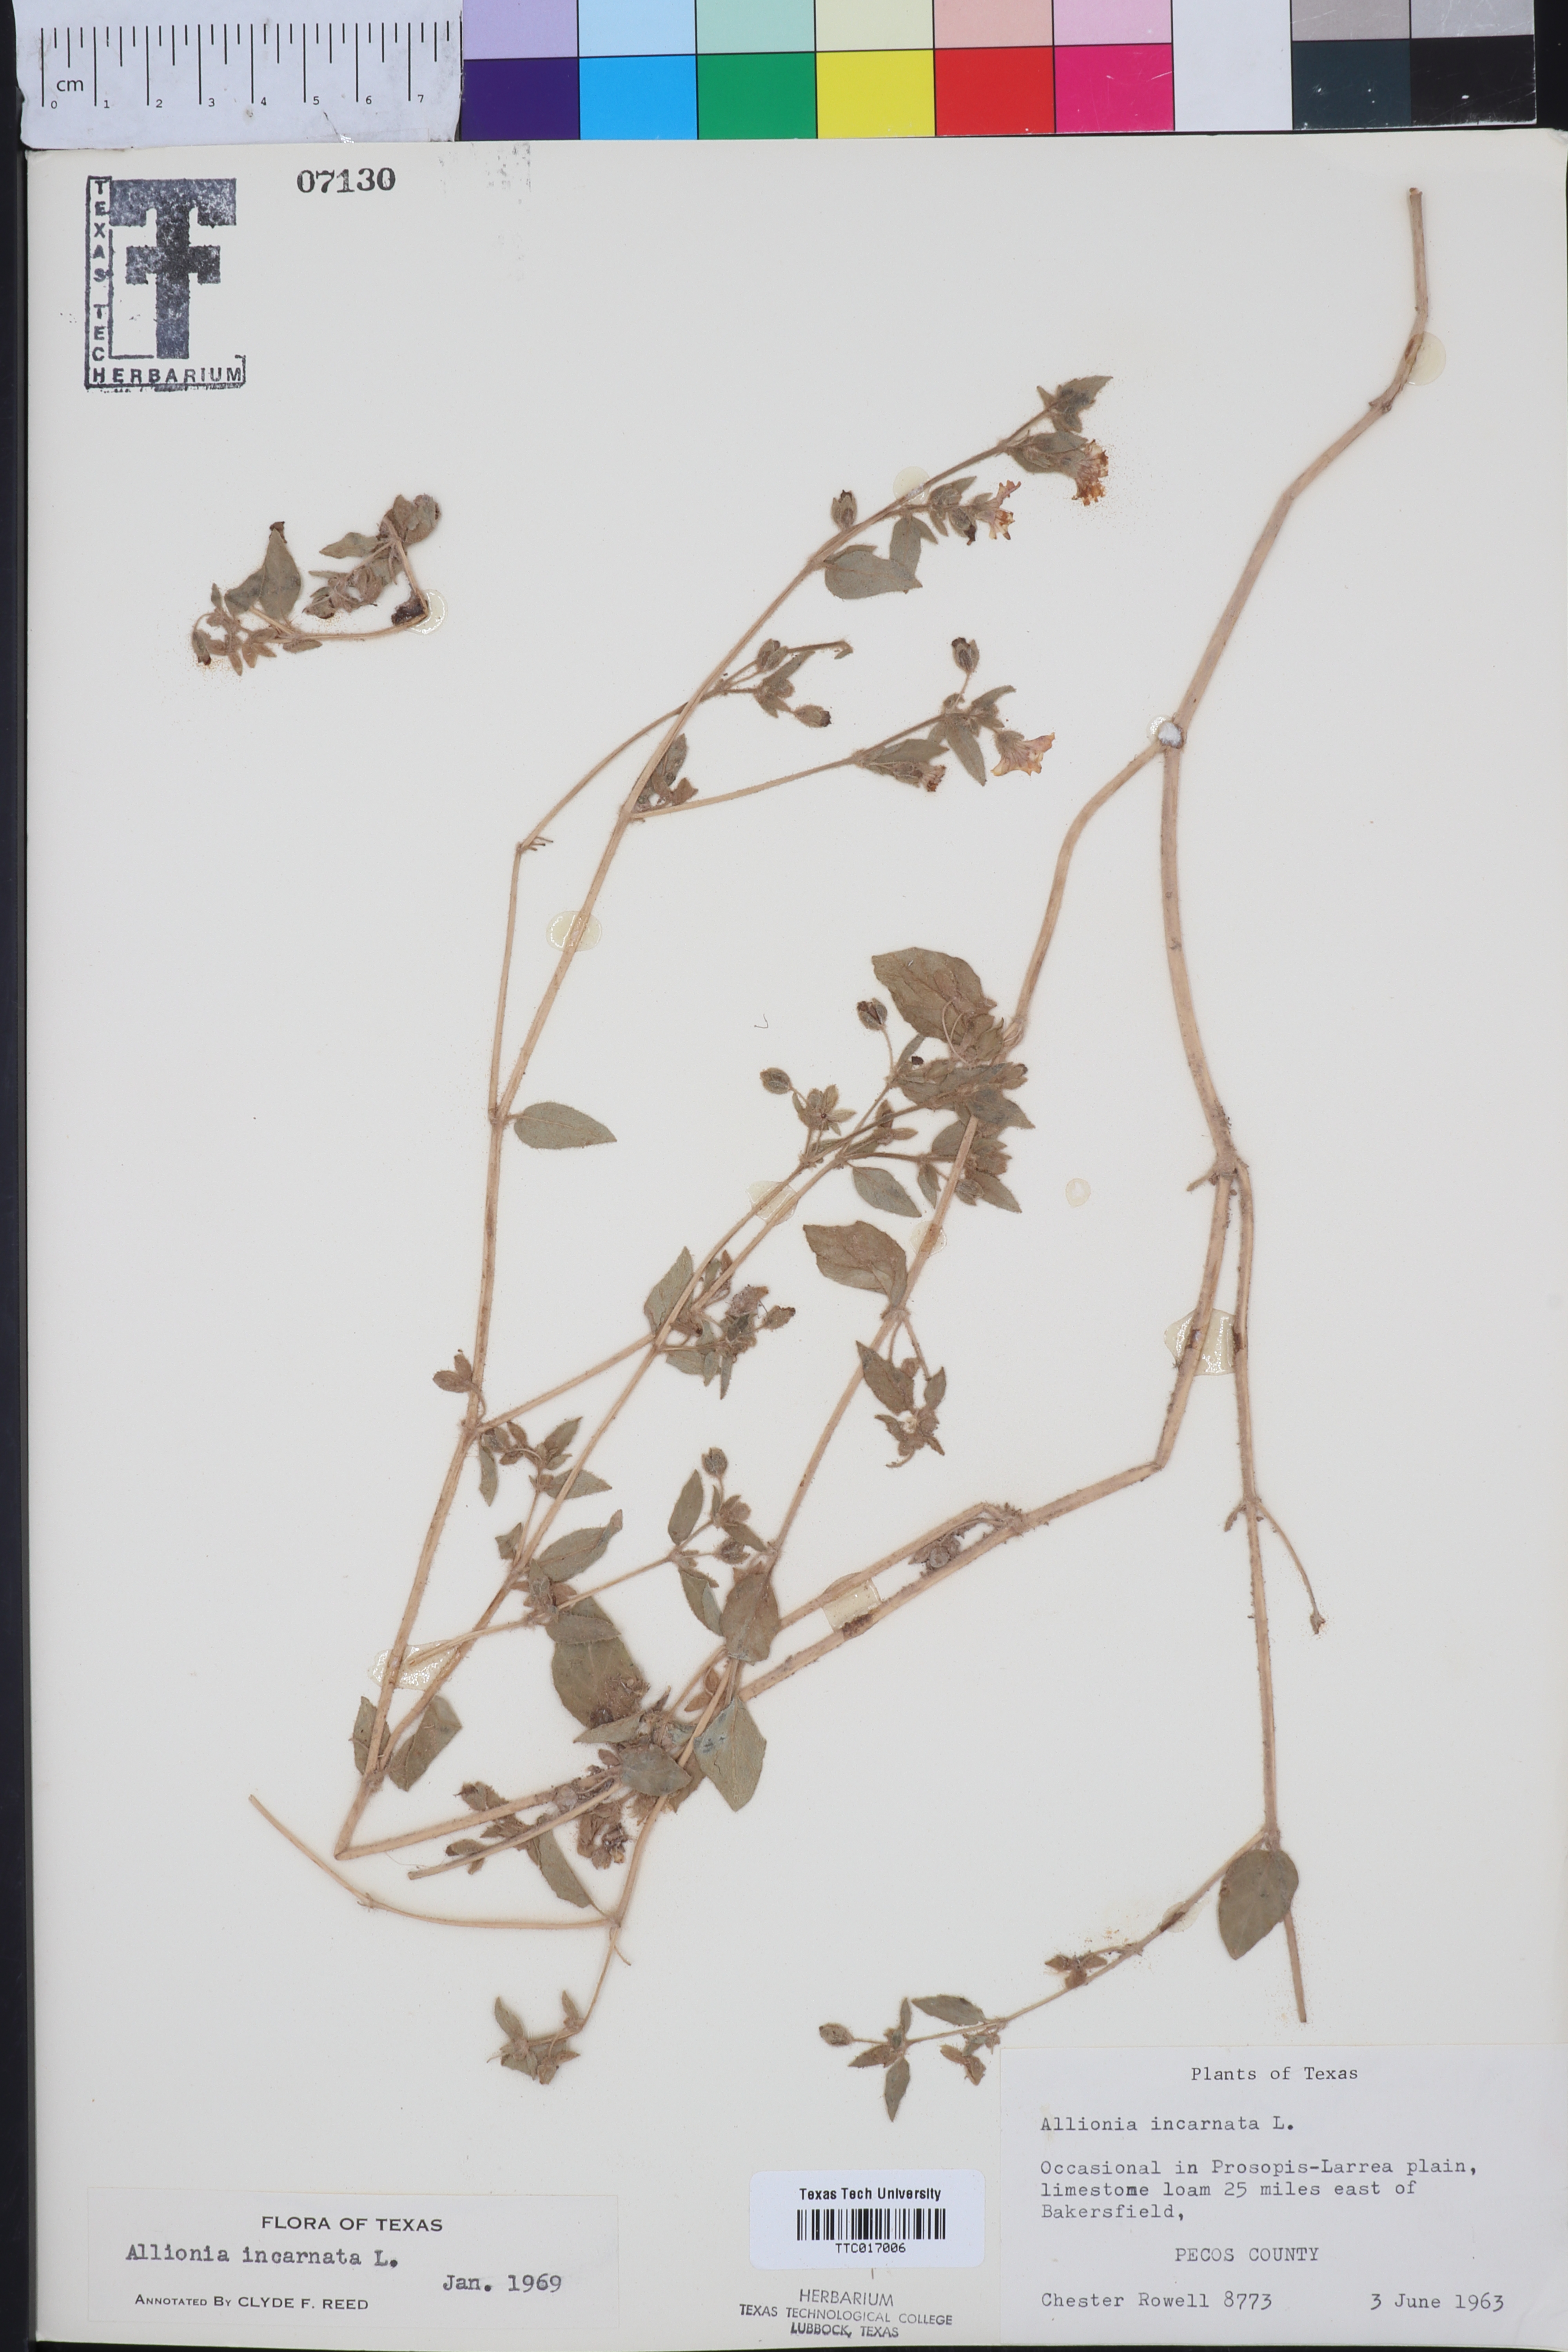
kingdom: Plantae
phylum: Tracheophyta
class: Magnoliopsida
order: Caryophyllales
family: Nyctaginaceae
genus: Allionia
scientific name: Allionia incarnata
